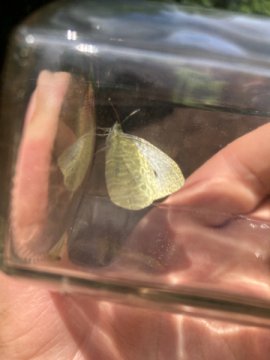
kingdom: Animalia
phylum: Arthropoda
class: Insecta
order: Lepidoptera
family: Pieridae
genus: Pieris
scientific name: Pieris rapae
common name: Cabbage White
